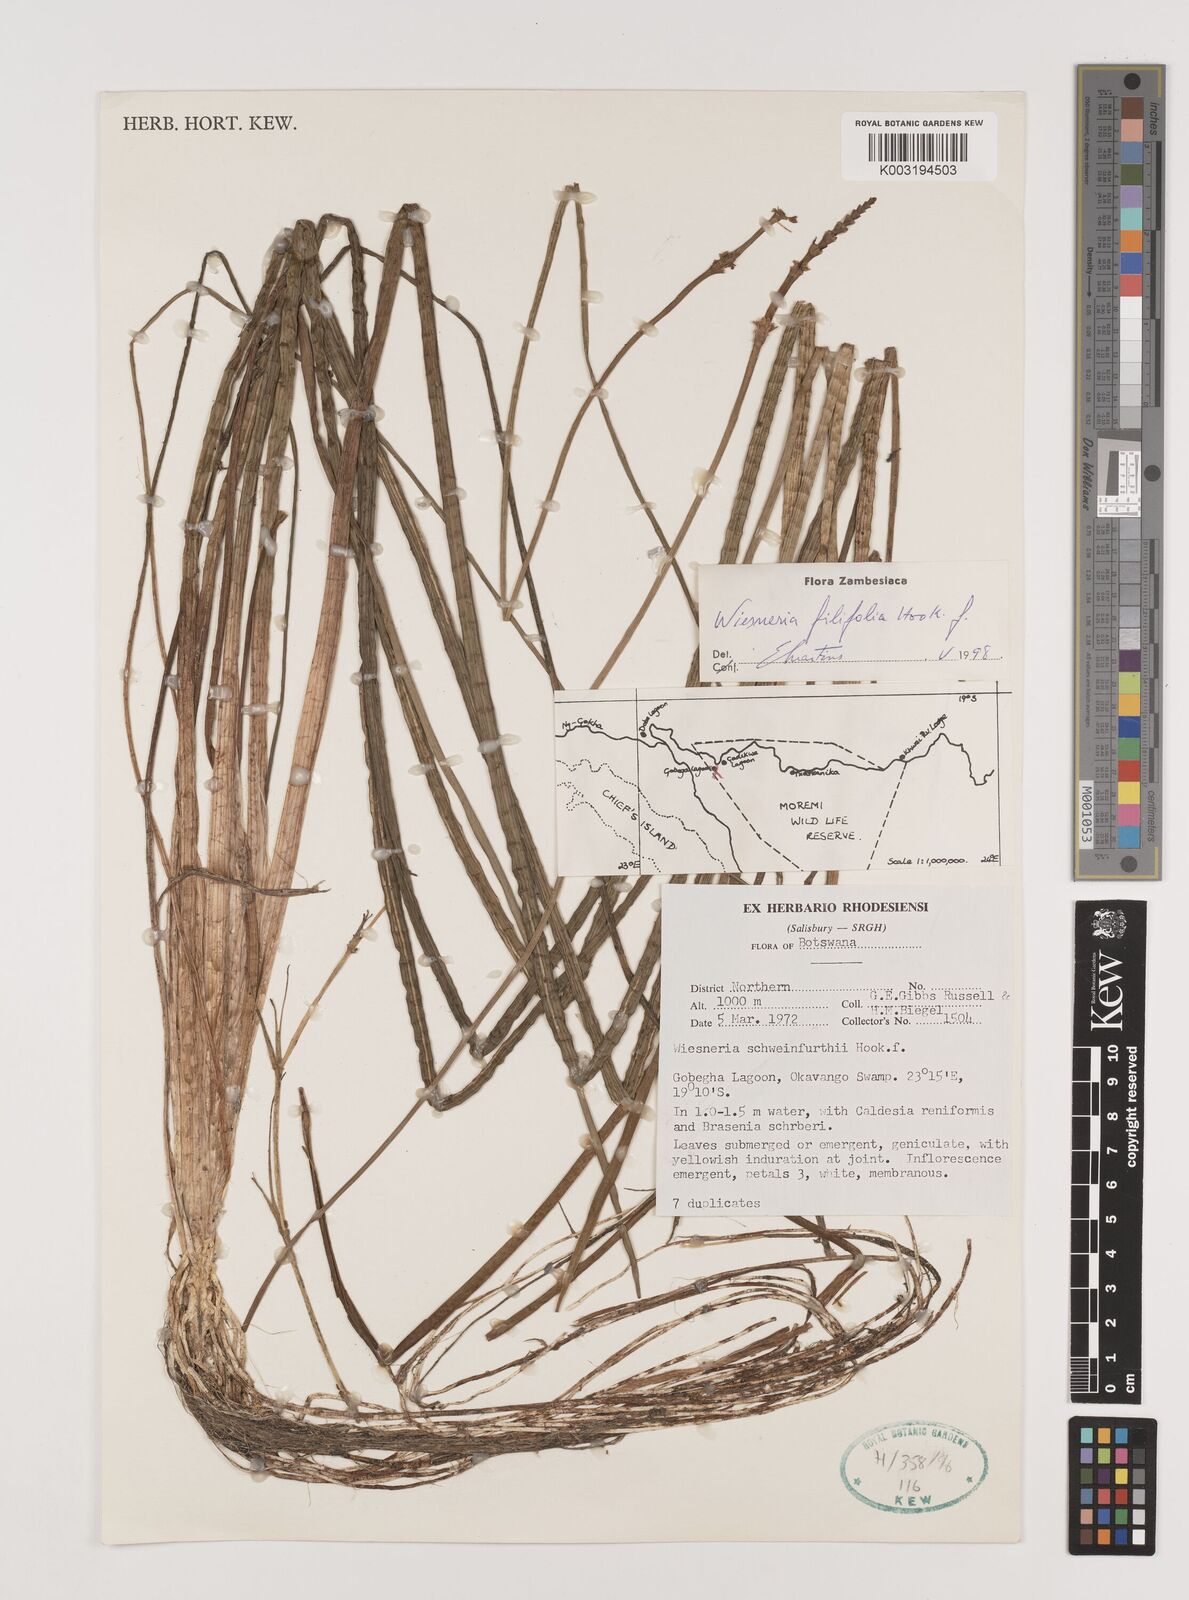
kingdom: Plantae
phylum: Tracheophyta
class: Liliopsida
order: Alismatales
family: Alismataceae
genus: Wiesneria
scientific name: Wiesneria filifolia
